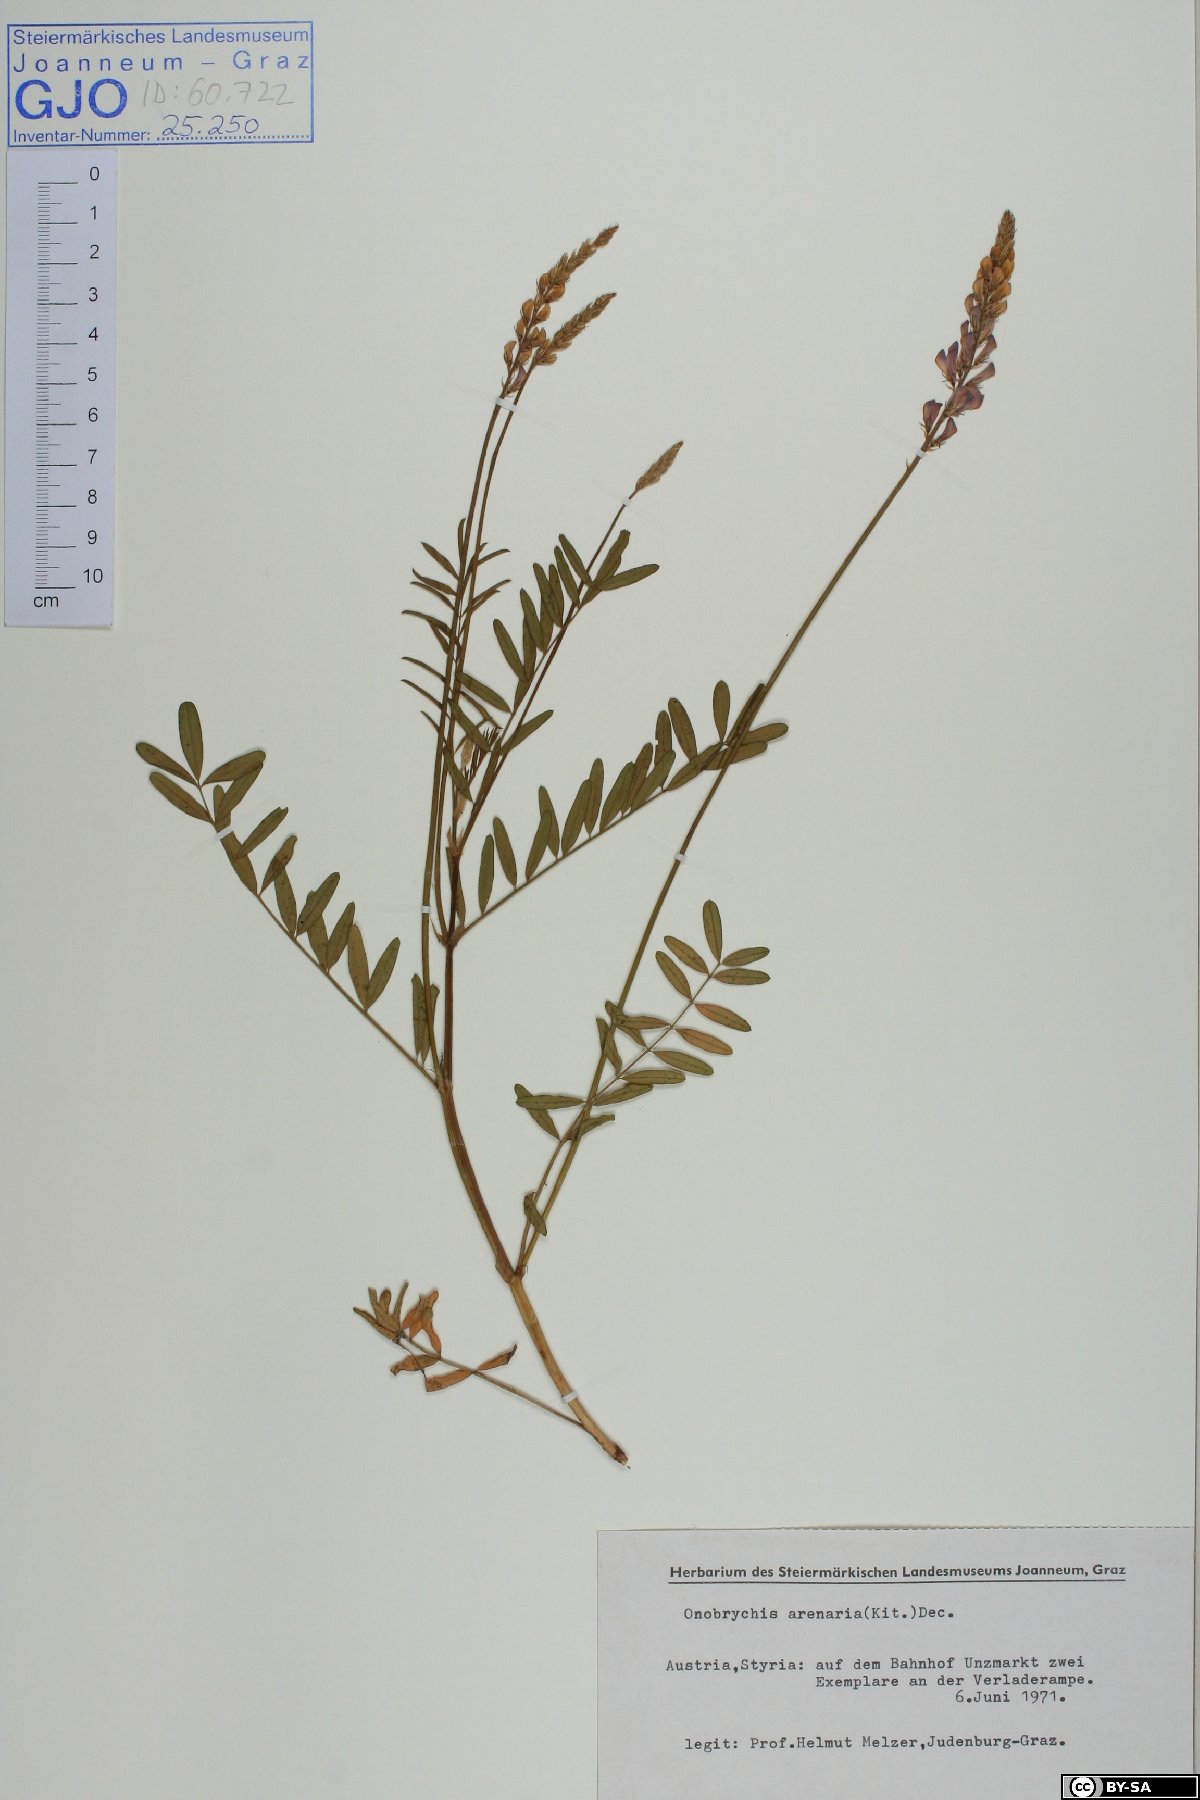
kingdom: Plantae
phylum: Tracheophyta
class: Magnoliopsida
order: Fabales
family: Fabaceae
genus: Onobrychis
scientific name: Onobrychis arenaria
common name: Sand esparcet
